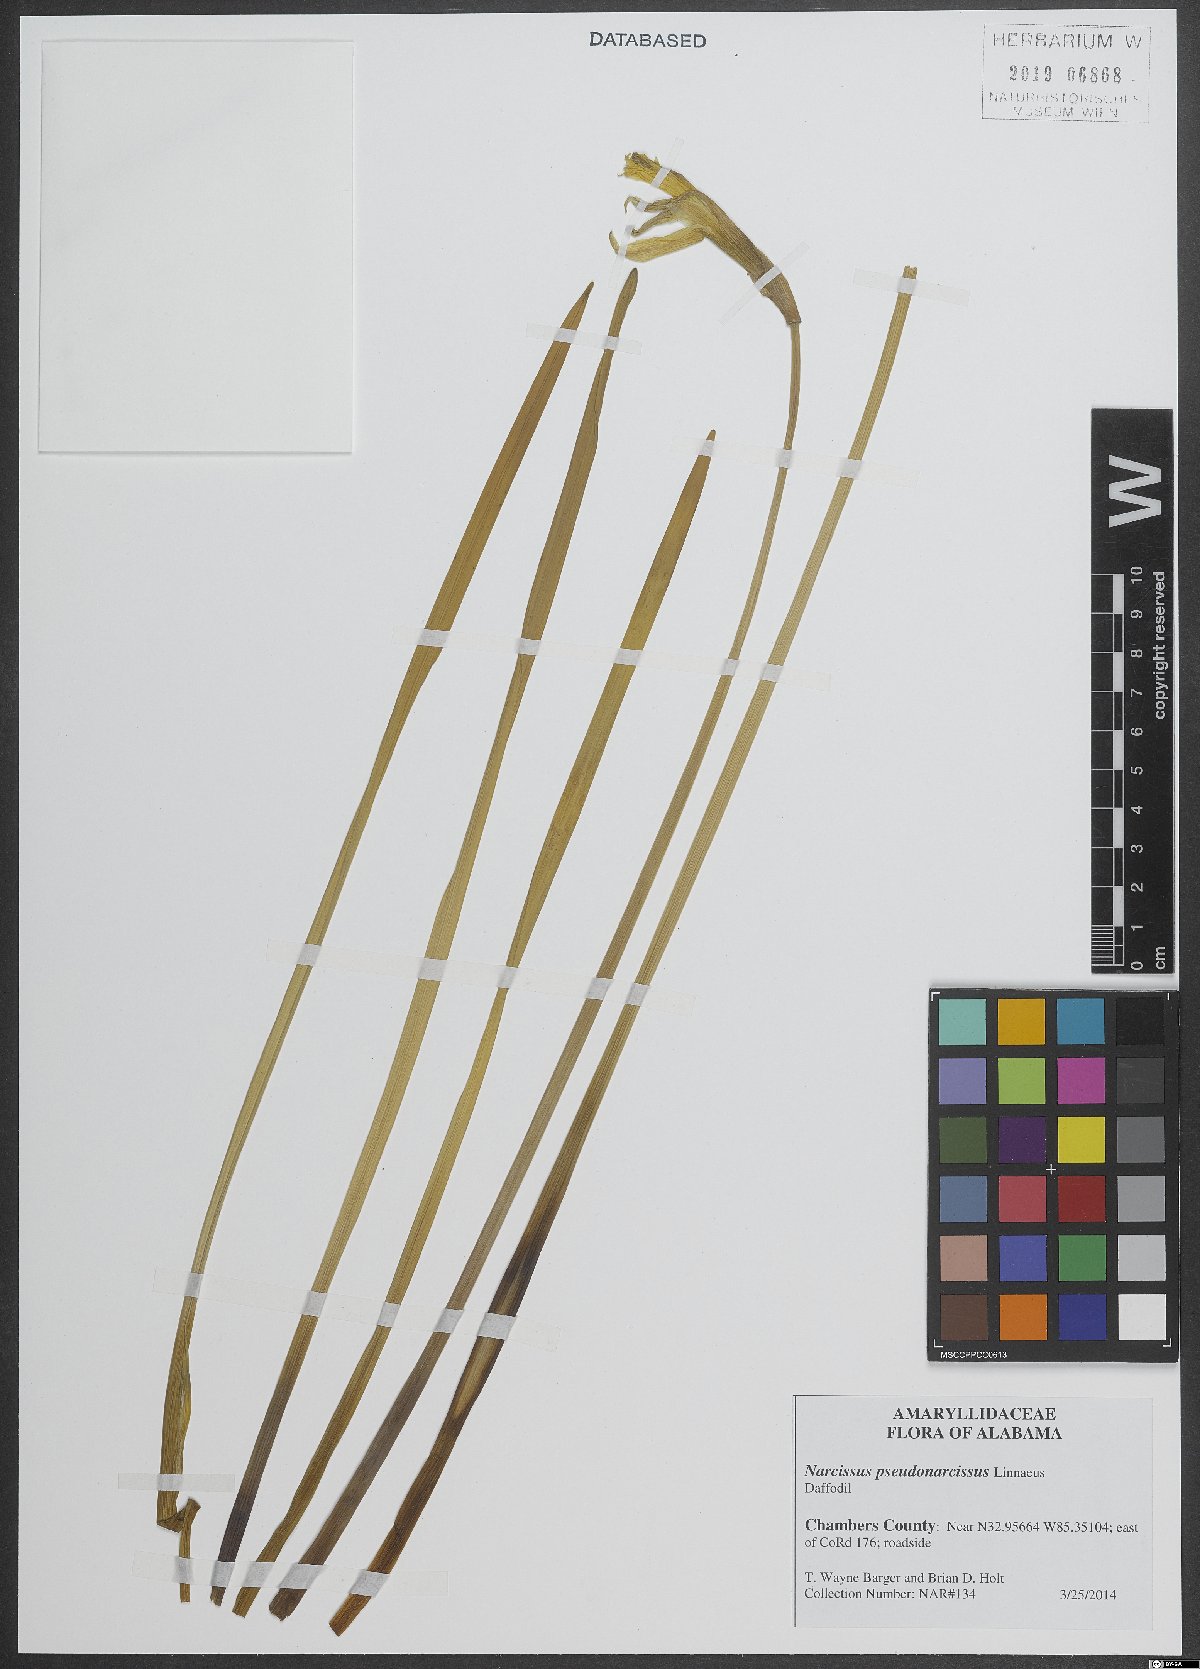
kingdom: Plantae
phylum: Tracheophyta
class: Liliopsida
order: Asparagales
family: Amaryllidaceae
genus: Narcissus
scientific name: Narcissus pseudonarcissus
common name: Daffodil
